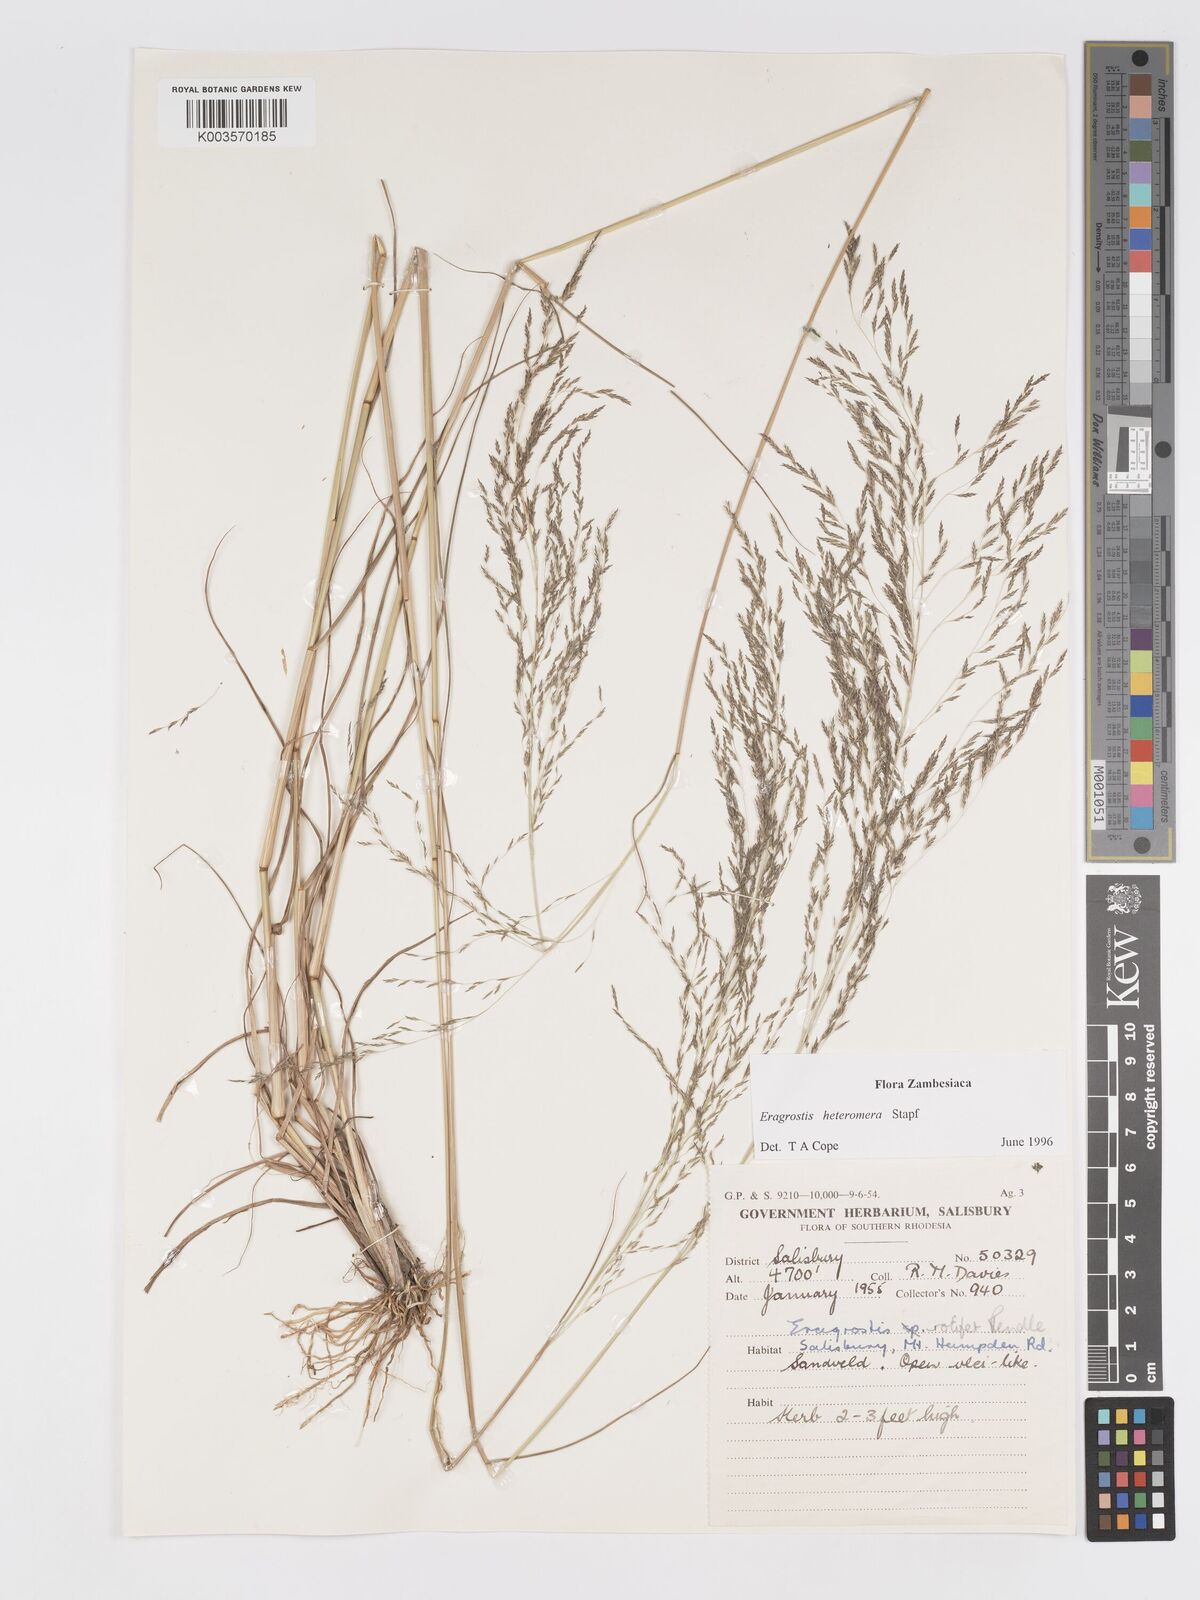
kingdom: Plantae
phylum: Tracheophyta
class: Liliopsida
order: Poales
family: Poaceae
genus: Eragrostis
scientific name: Eragrostis heteromera
